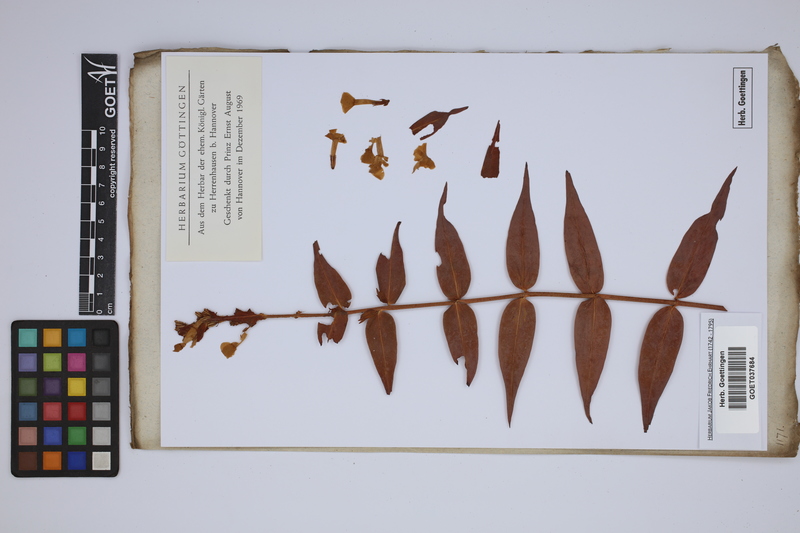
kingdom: Plantae
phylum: Tracheophyta
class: Magnoliopsida
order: Ericales
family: Polemoniaceae
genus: Phlox
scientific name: Phlox paniculata
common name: Fall phlox
